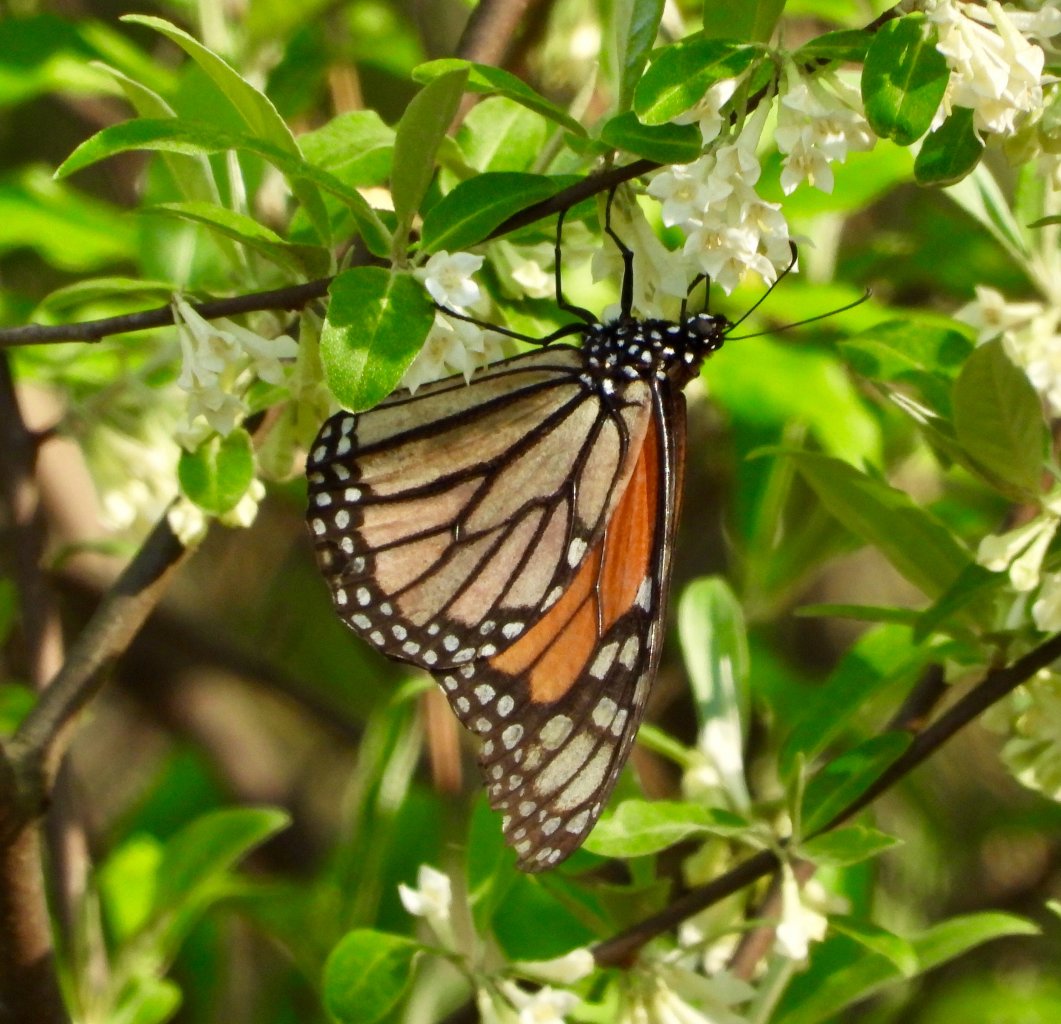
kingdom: Animalia
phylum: Arthropoda
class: Insecta
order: Lepidoptera
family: Nymphalidae
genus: Danaus
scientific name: Danaus plexippus
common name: Monarch
